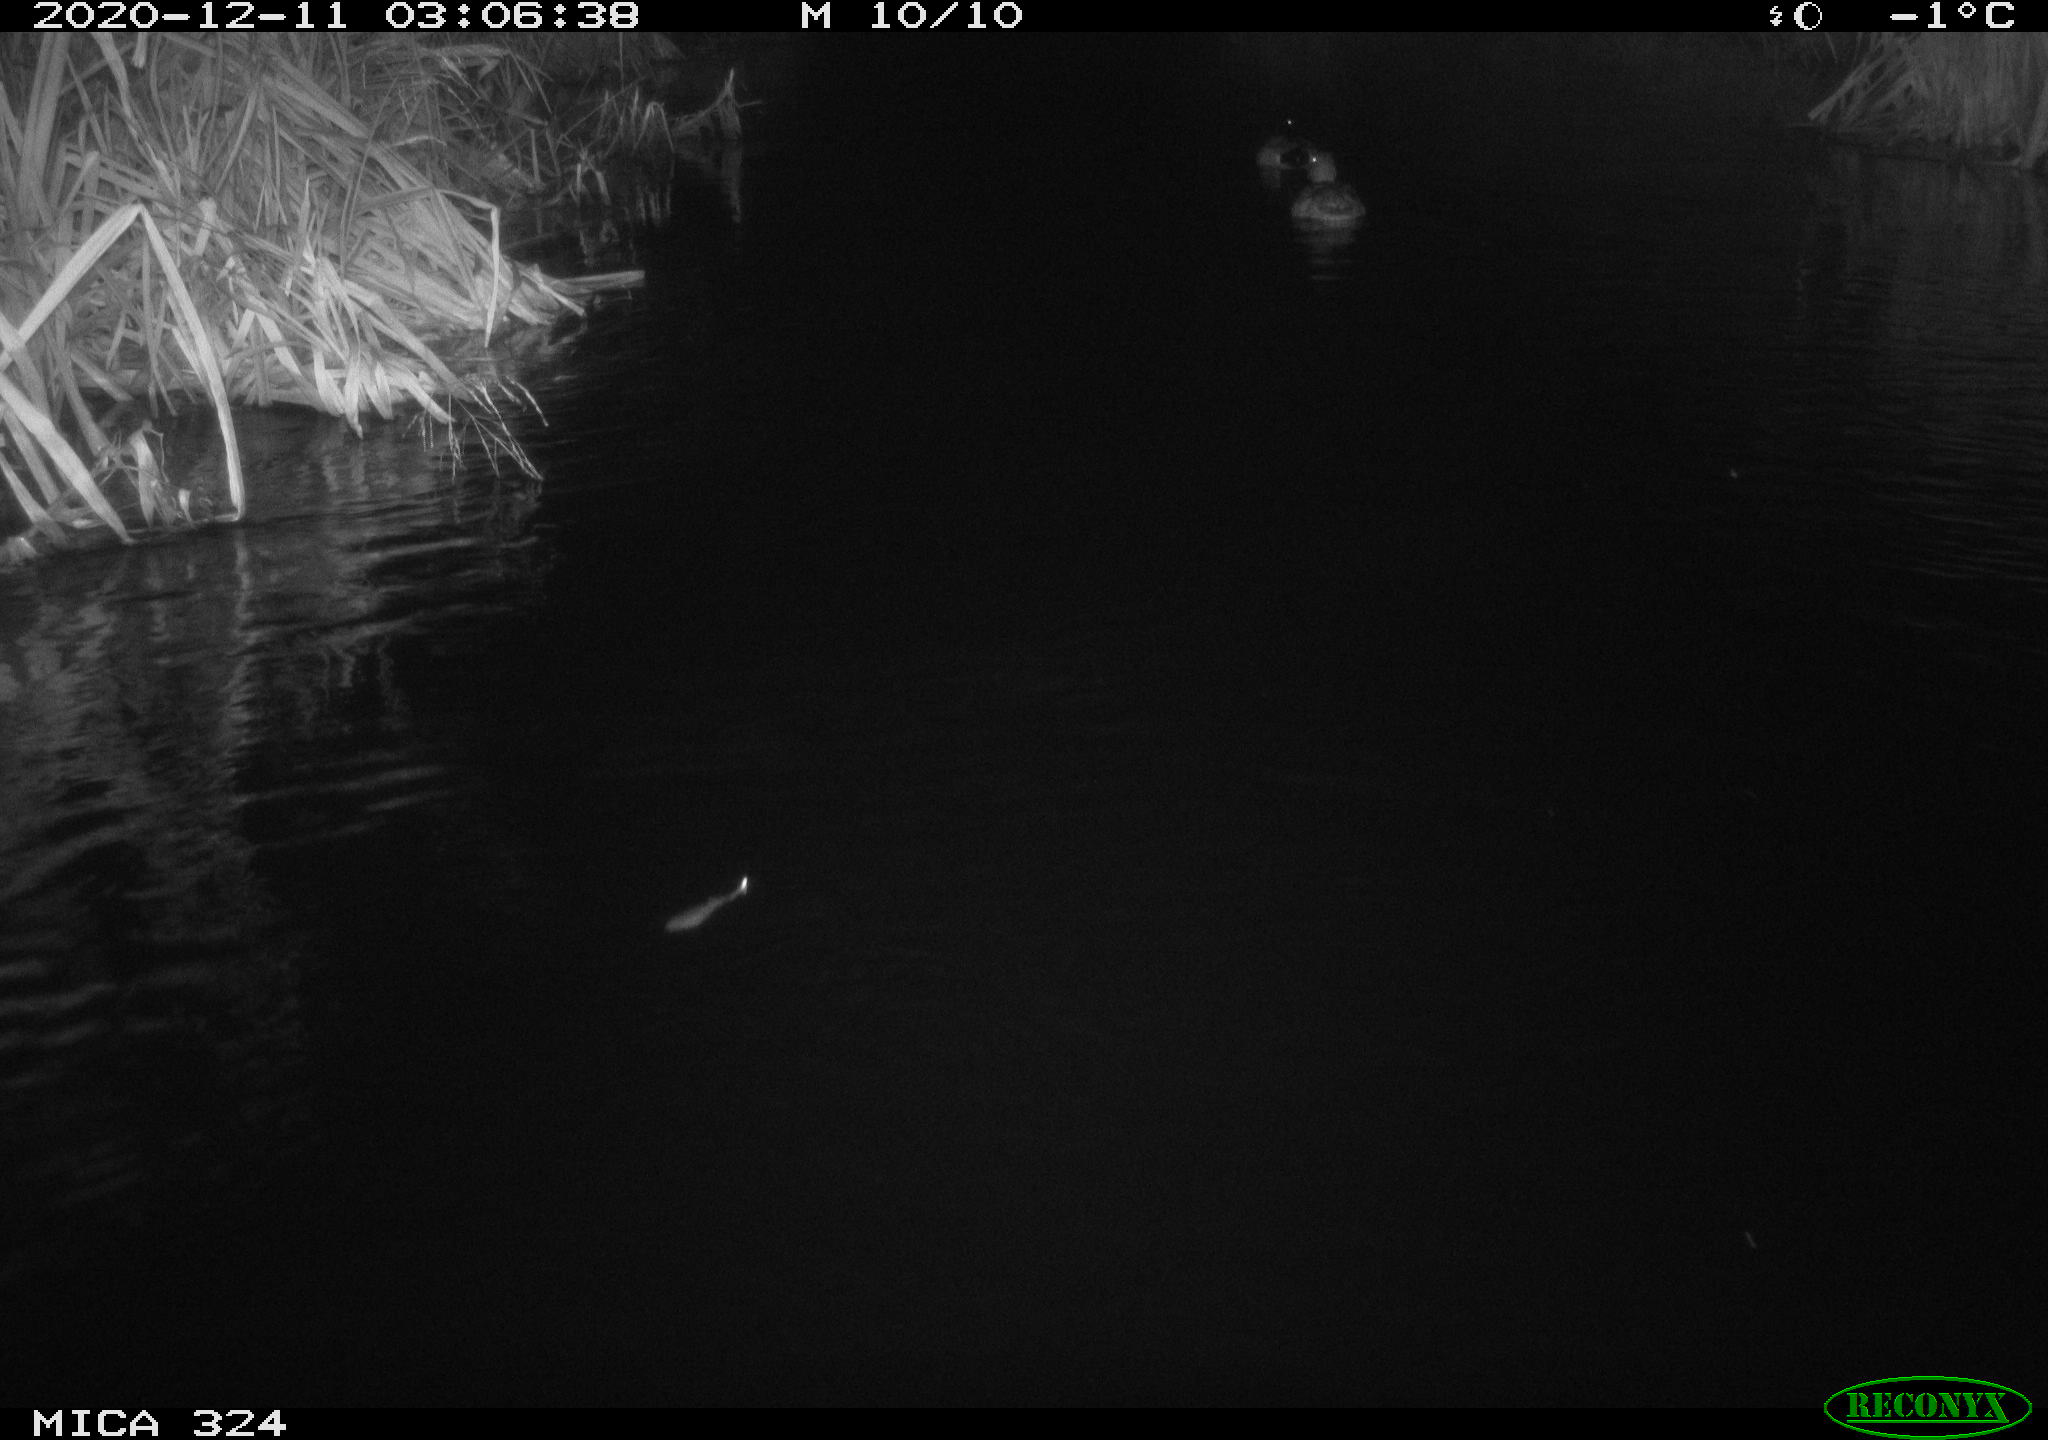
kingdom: Animalia
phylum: Chordata
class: Aves
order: Anseriformes
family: Anatidae
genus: Anas
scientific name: Anas platyrhynchos
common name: Mallard
